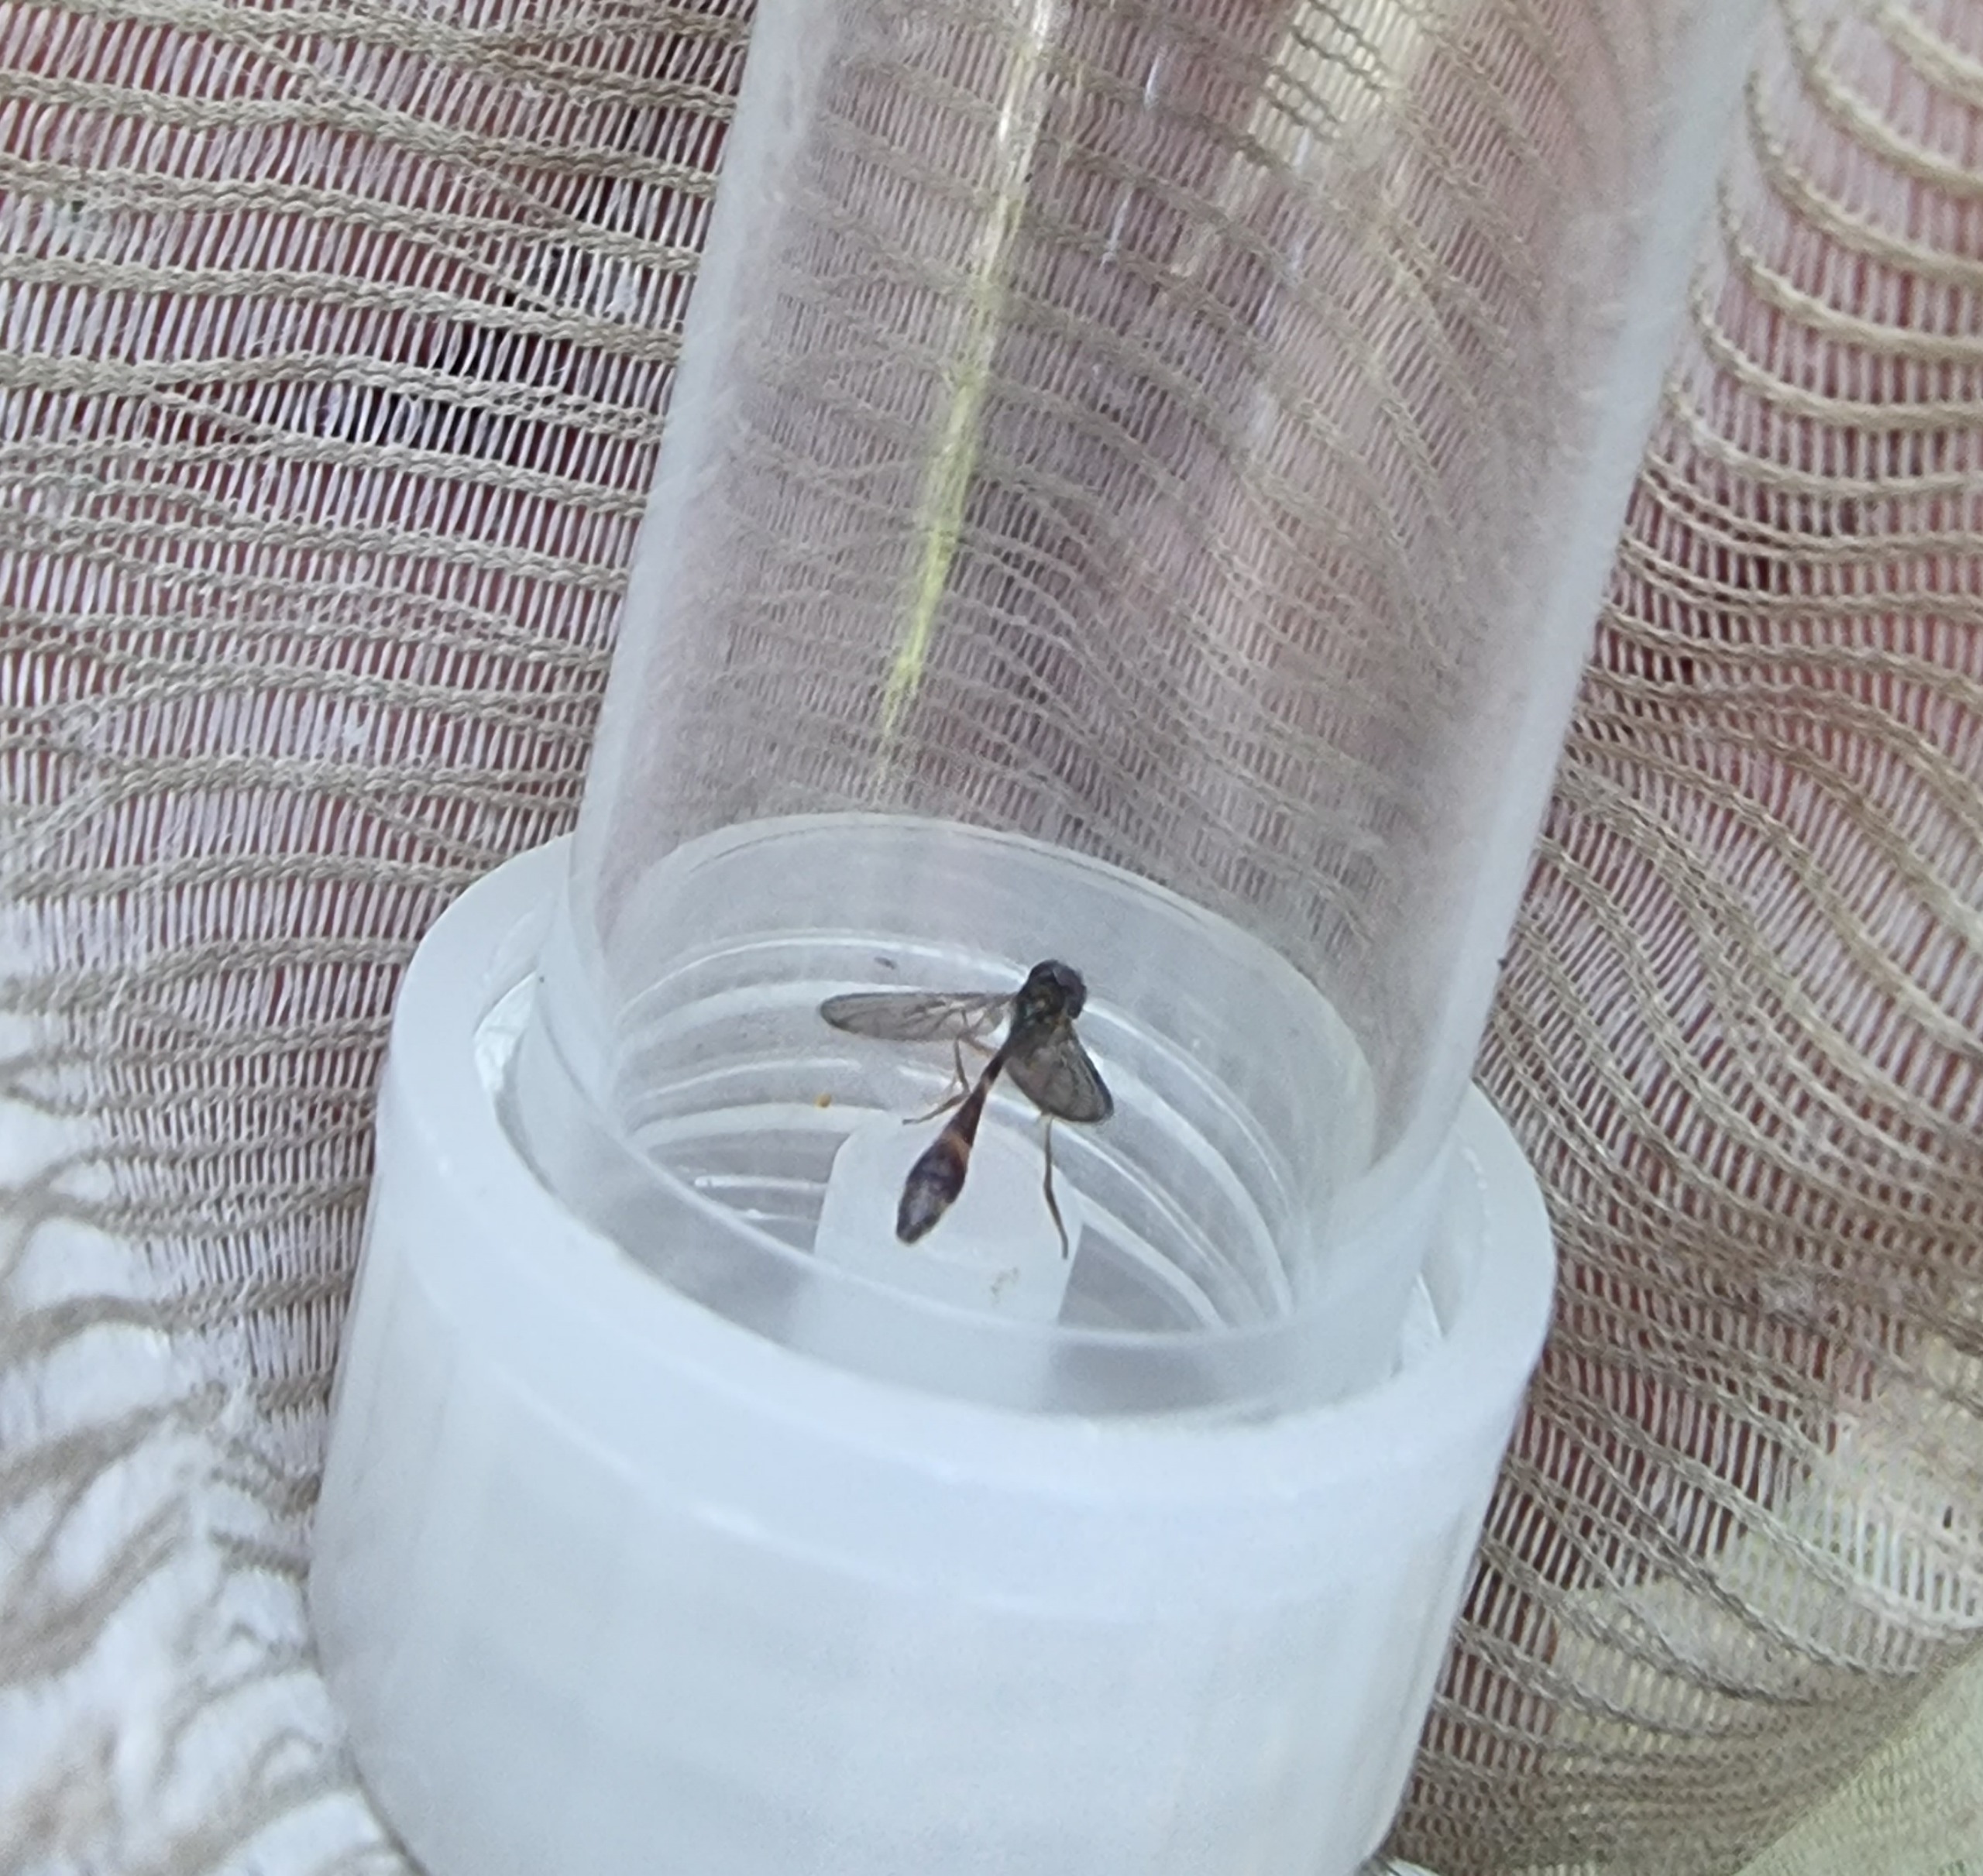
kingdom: Animalia
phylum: Arthropoda
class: Insecta
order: Diptera
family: Syrphidae
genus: Baccha
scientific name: Baccha elongata
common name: Mat spydsvirreflue
